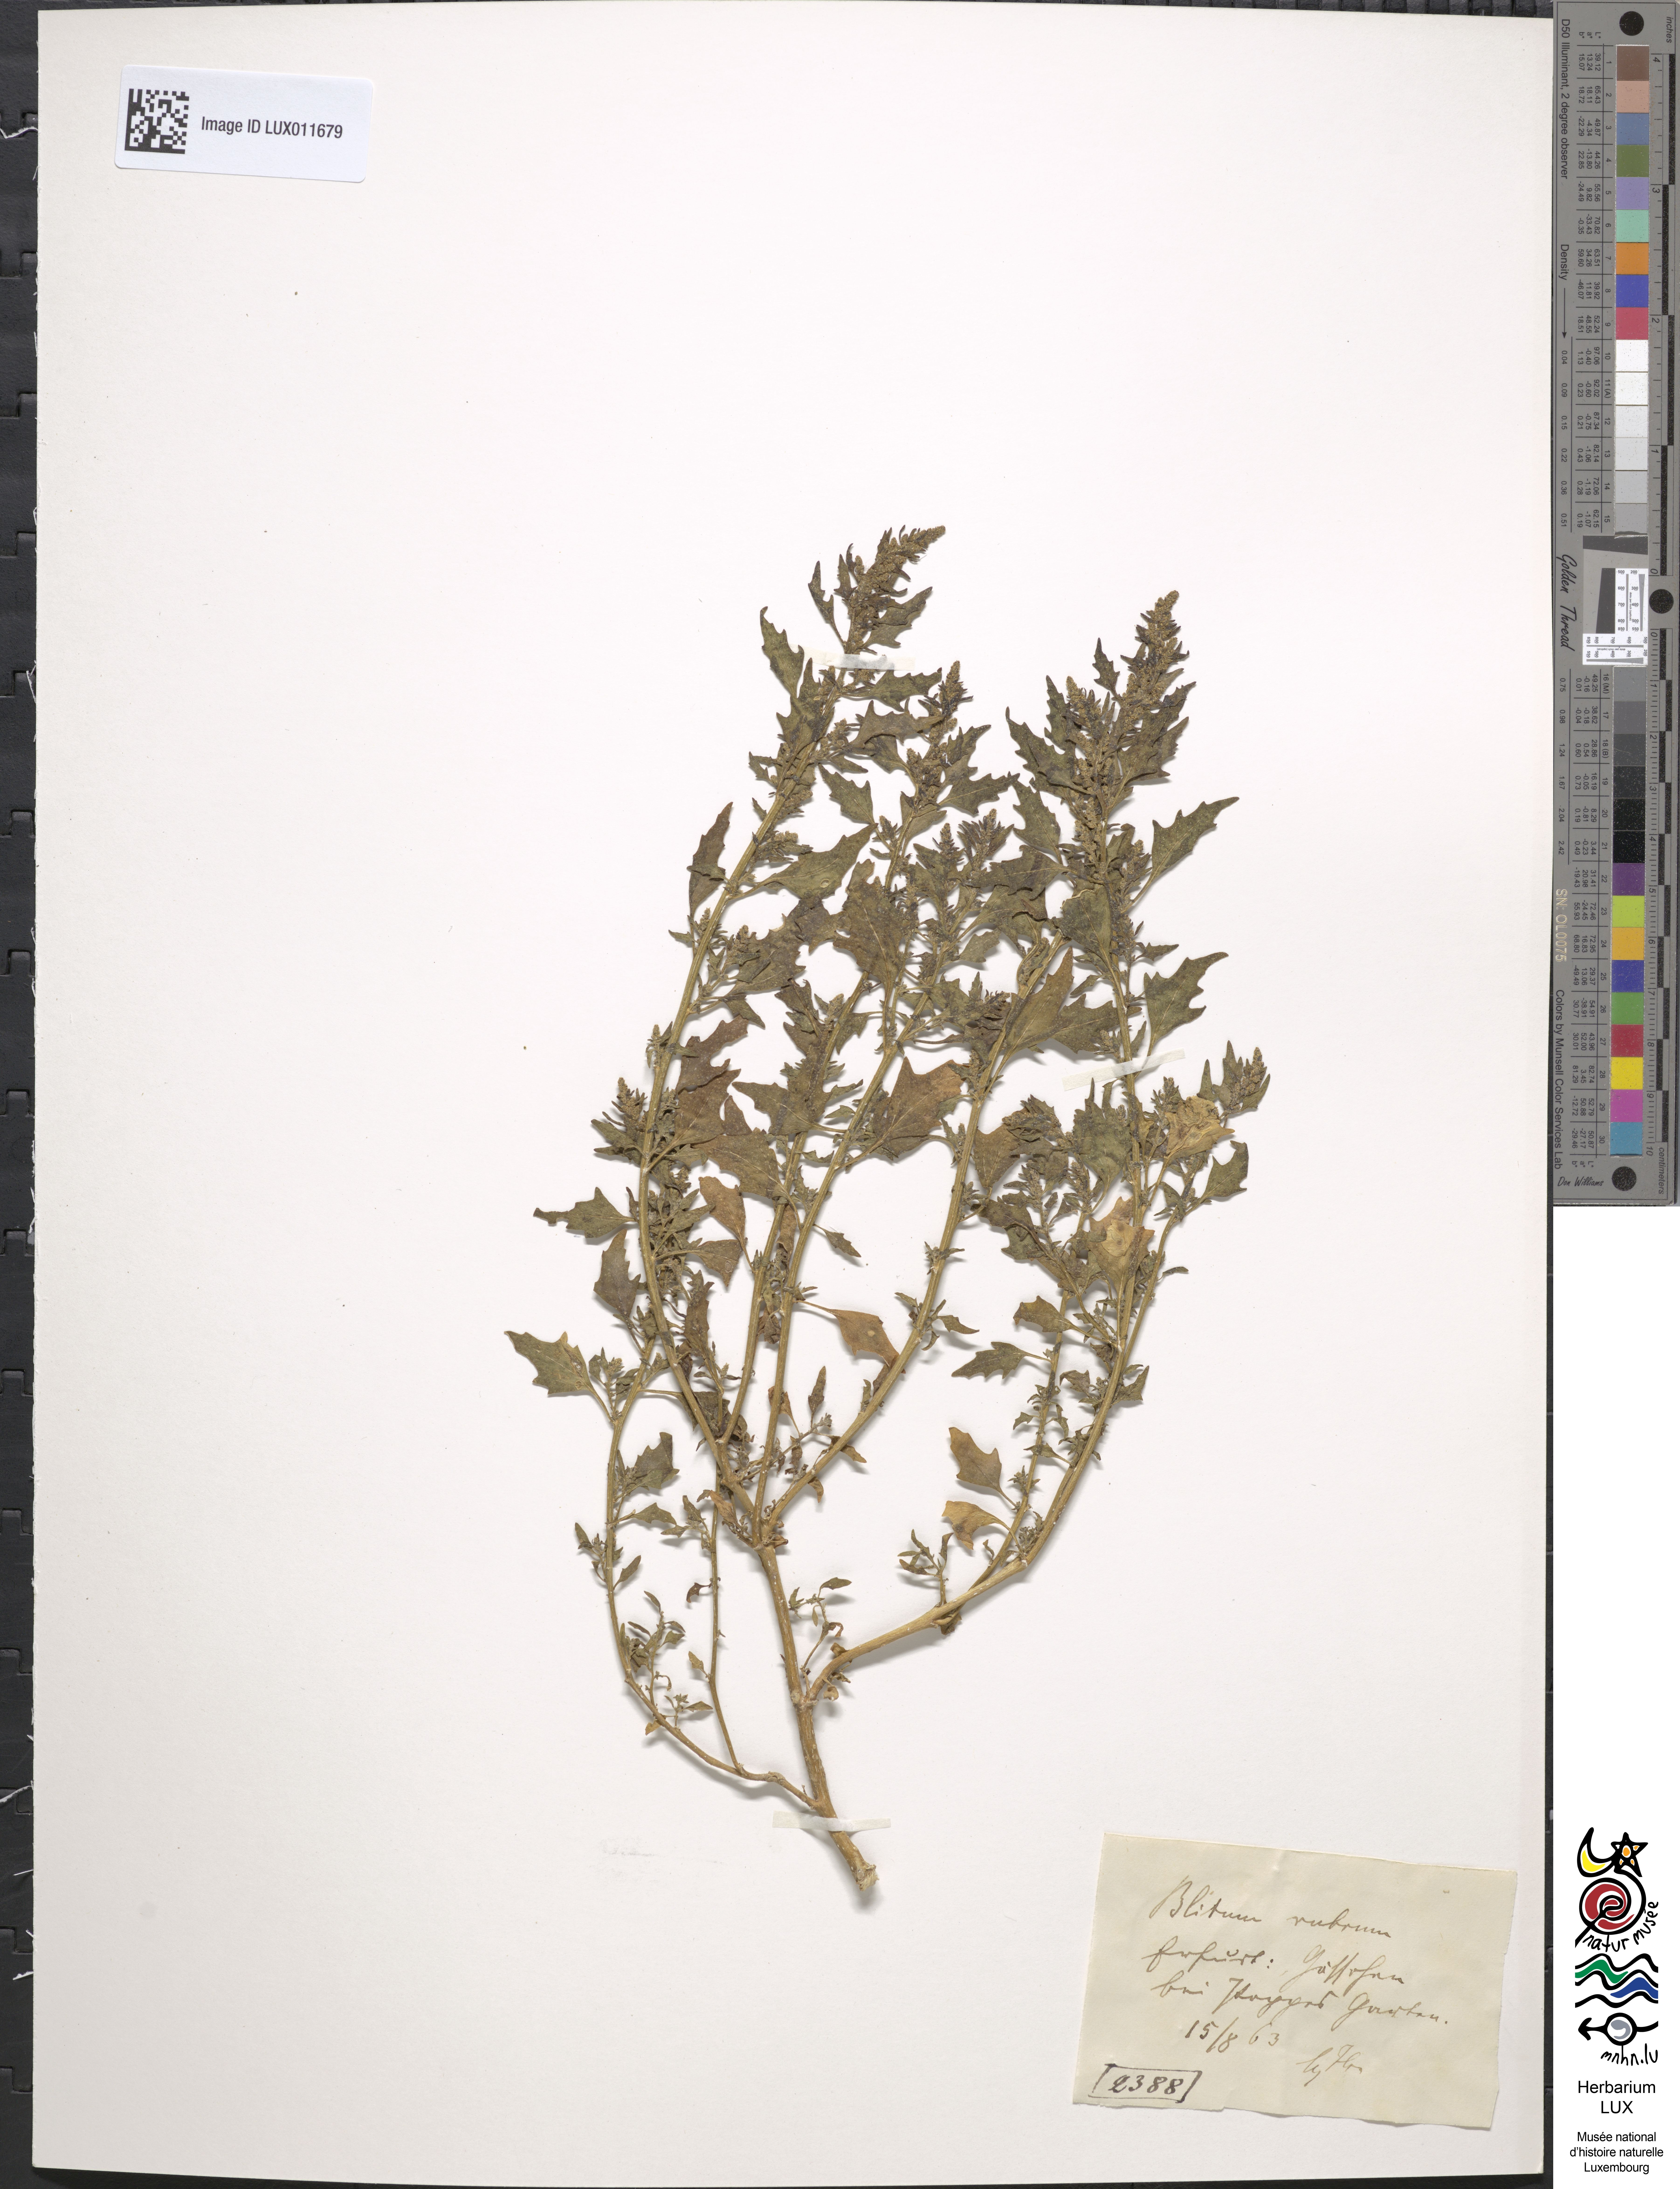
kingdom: Plantae
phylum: Tracheophyta
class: Magnoliopsida
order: Caryophyllales
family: Amaranthaceae
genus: Oxybasis
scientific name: Oxybasis rubra
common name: Red goosefoot
